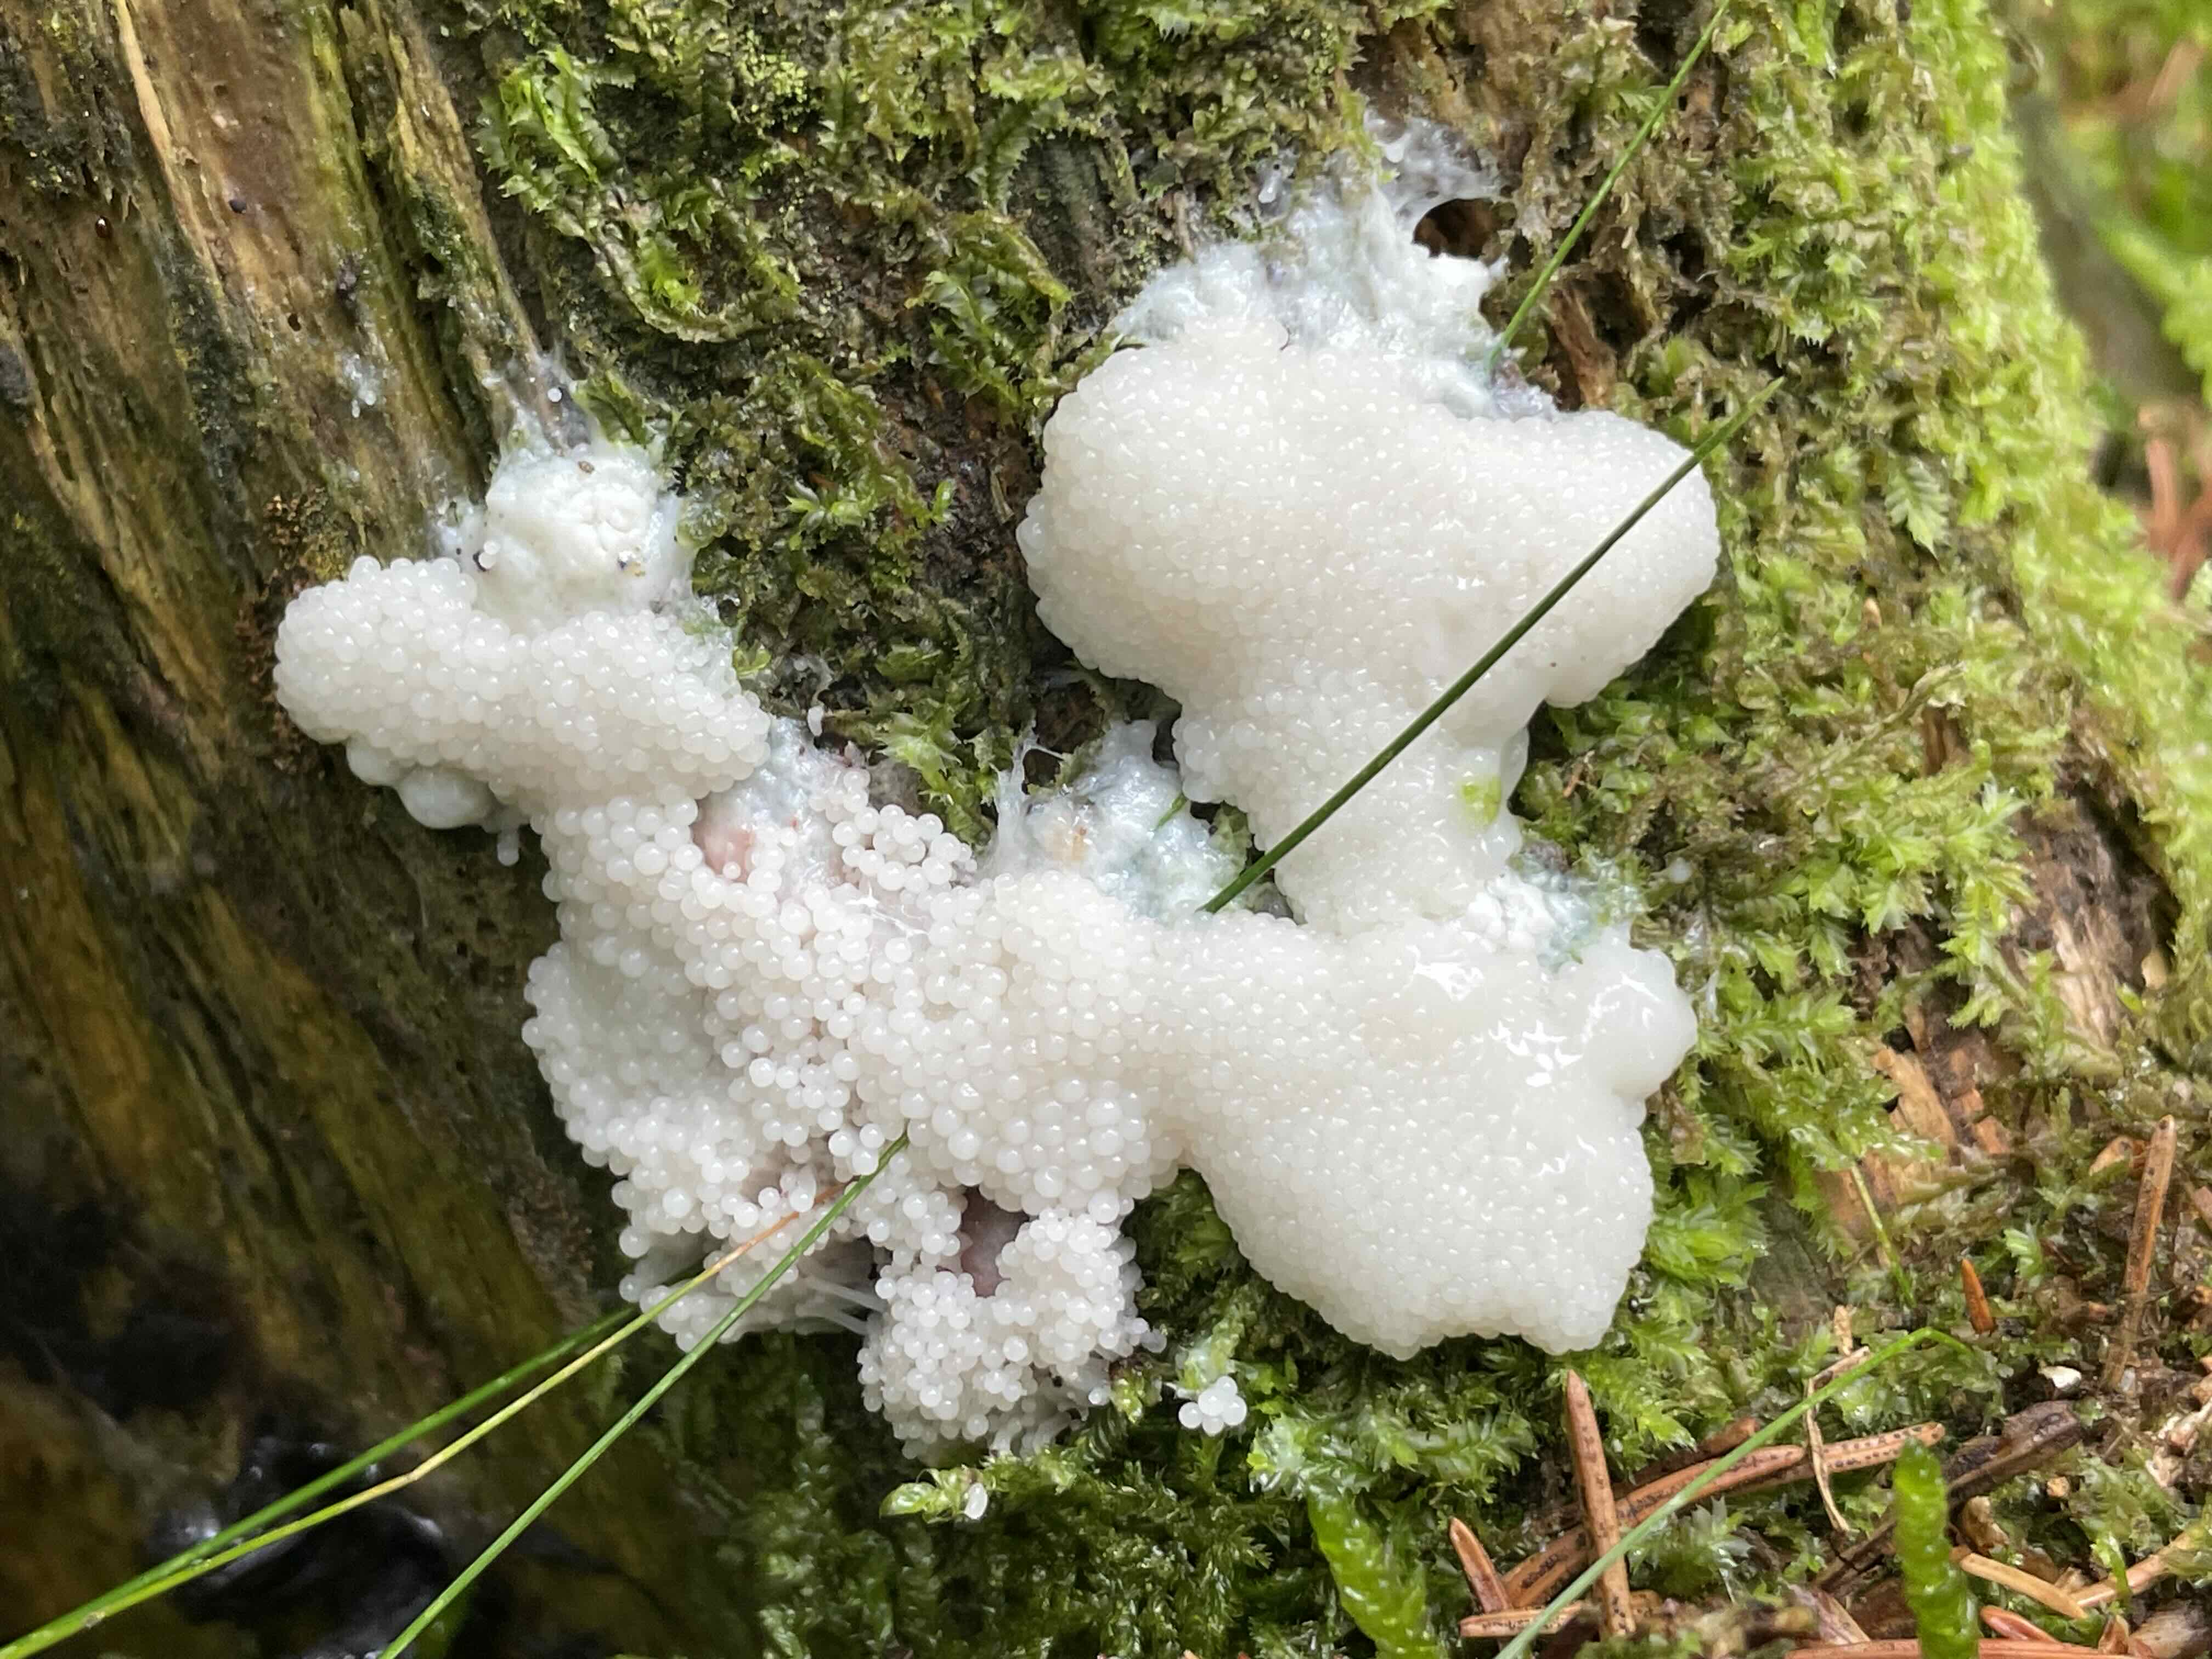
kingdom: Protozoa
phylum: Mycetozoa
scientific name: Mycetozoa
